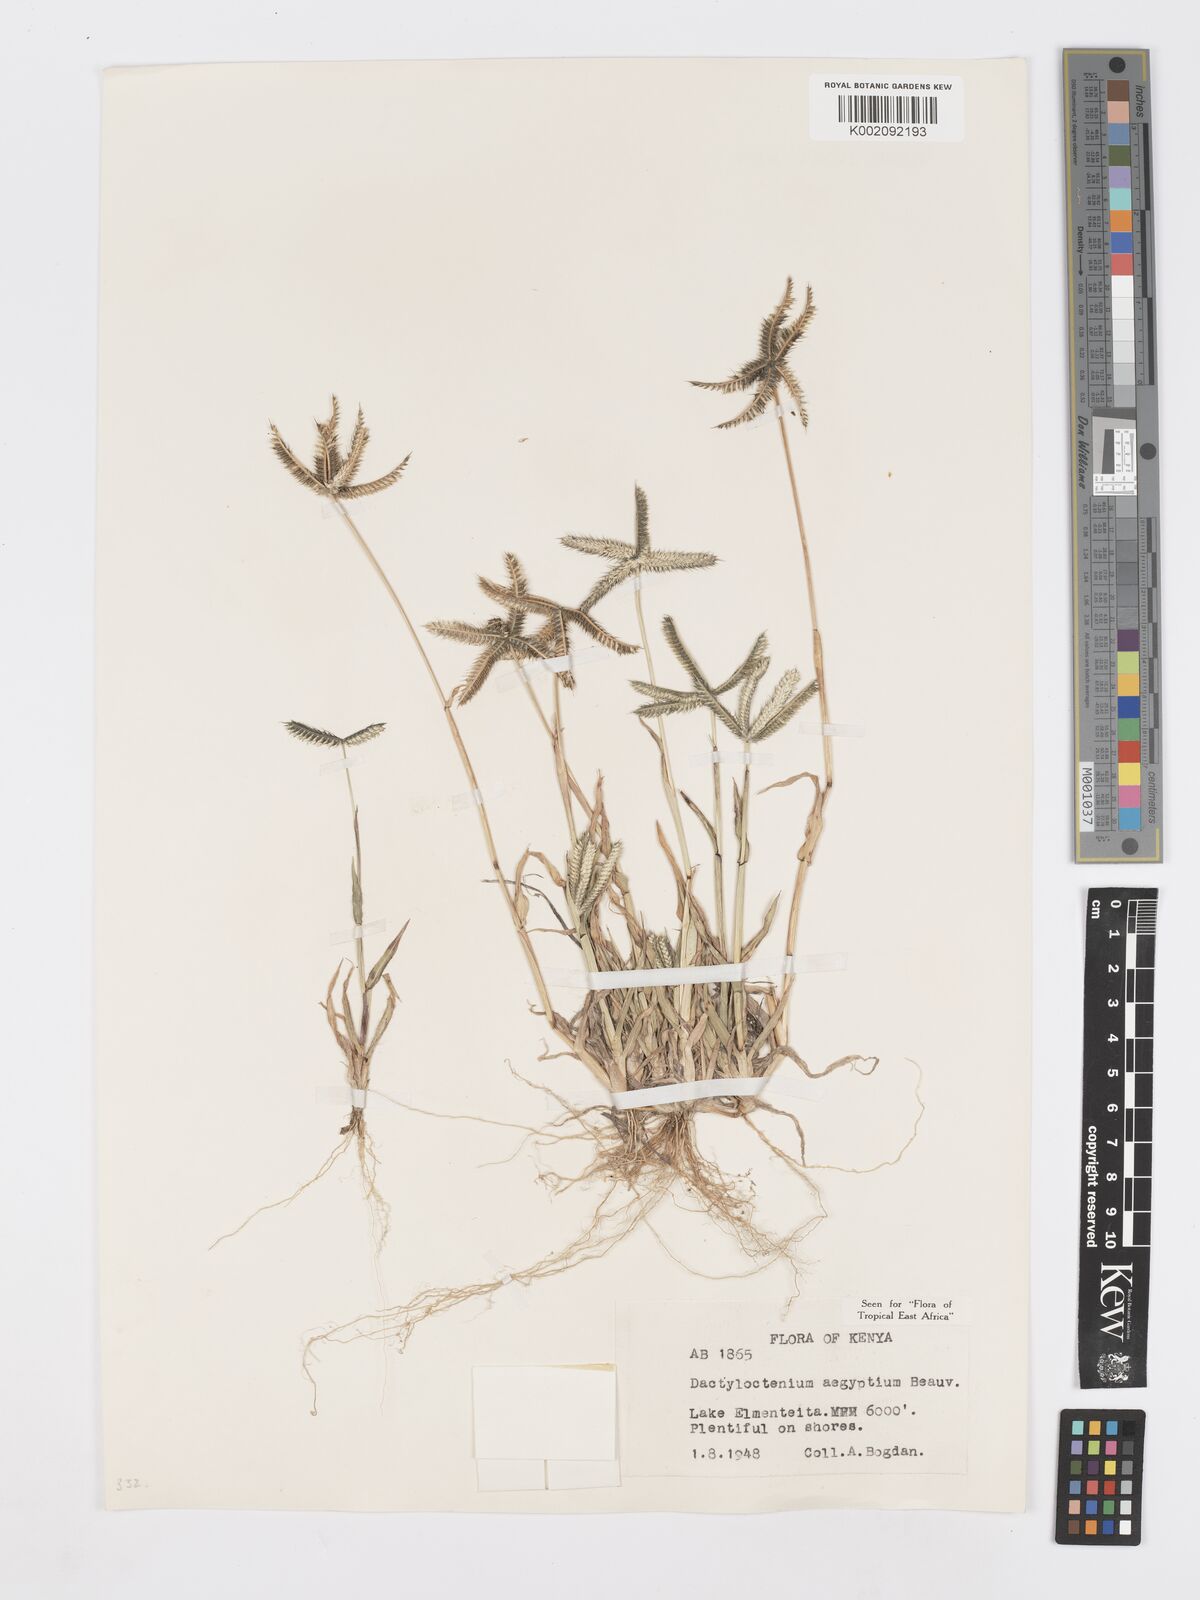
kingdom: Plantae
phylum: Tracheophyta
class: Liliopsida
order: Poales
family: Poaceae
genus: Dactyloctenium
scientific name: Dactyloctenium aegyptium
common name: Egyptian grass
